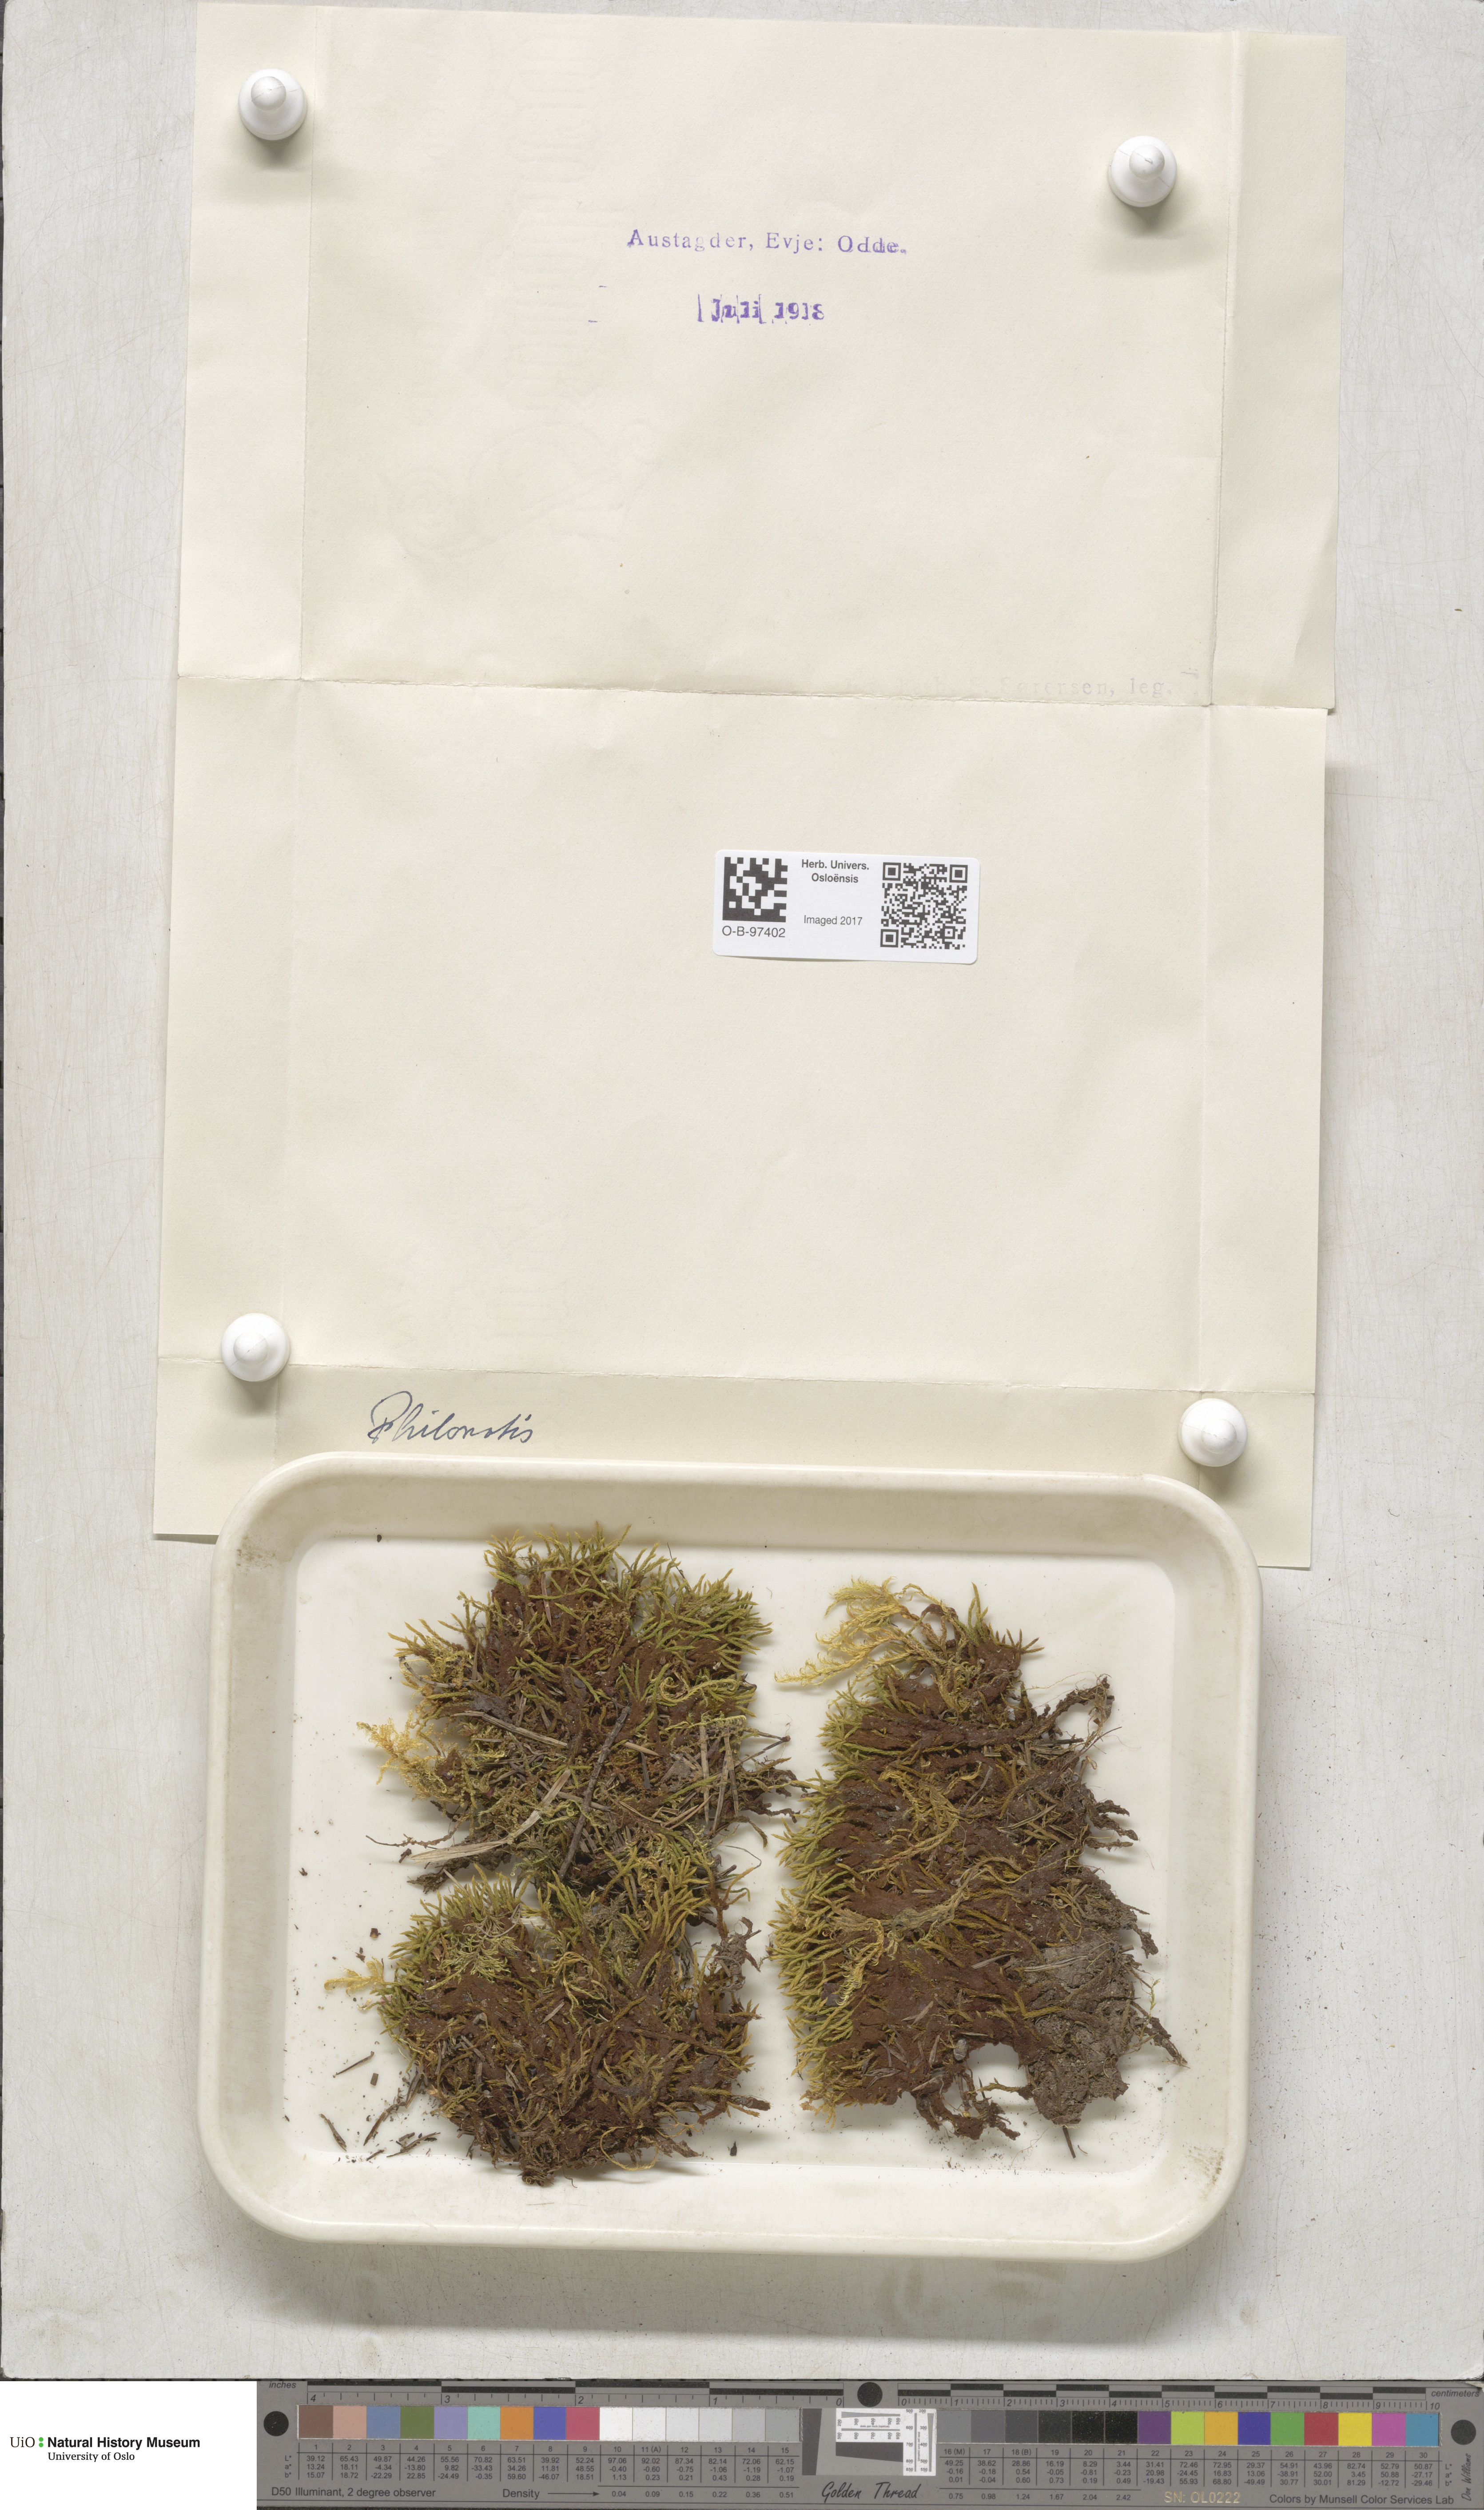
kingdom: Plantae
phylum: Bryophyta
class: Bryopsida
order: Bartramiales
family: Bartramiaceae
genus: Philonotis
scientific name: Philonotis
